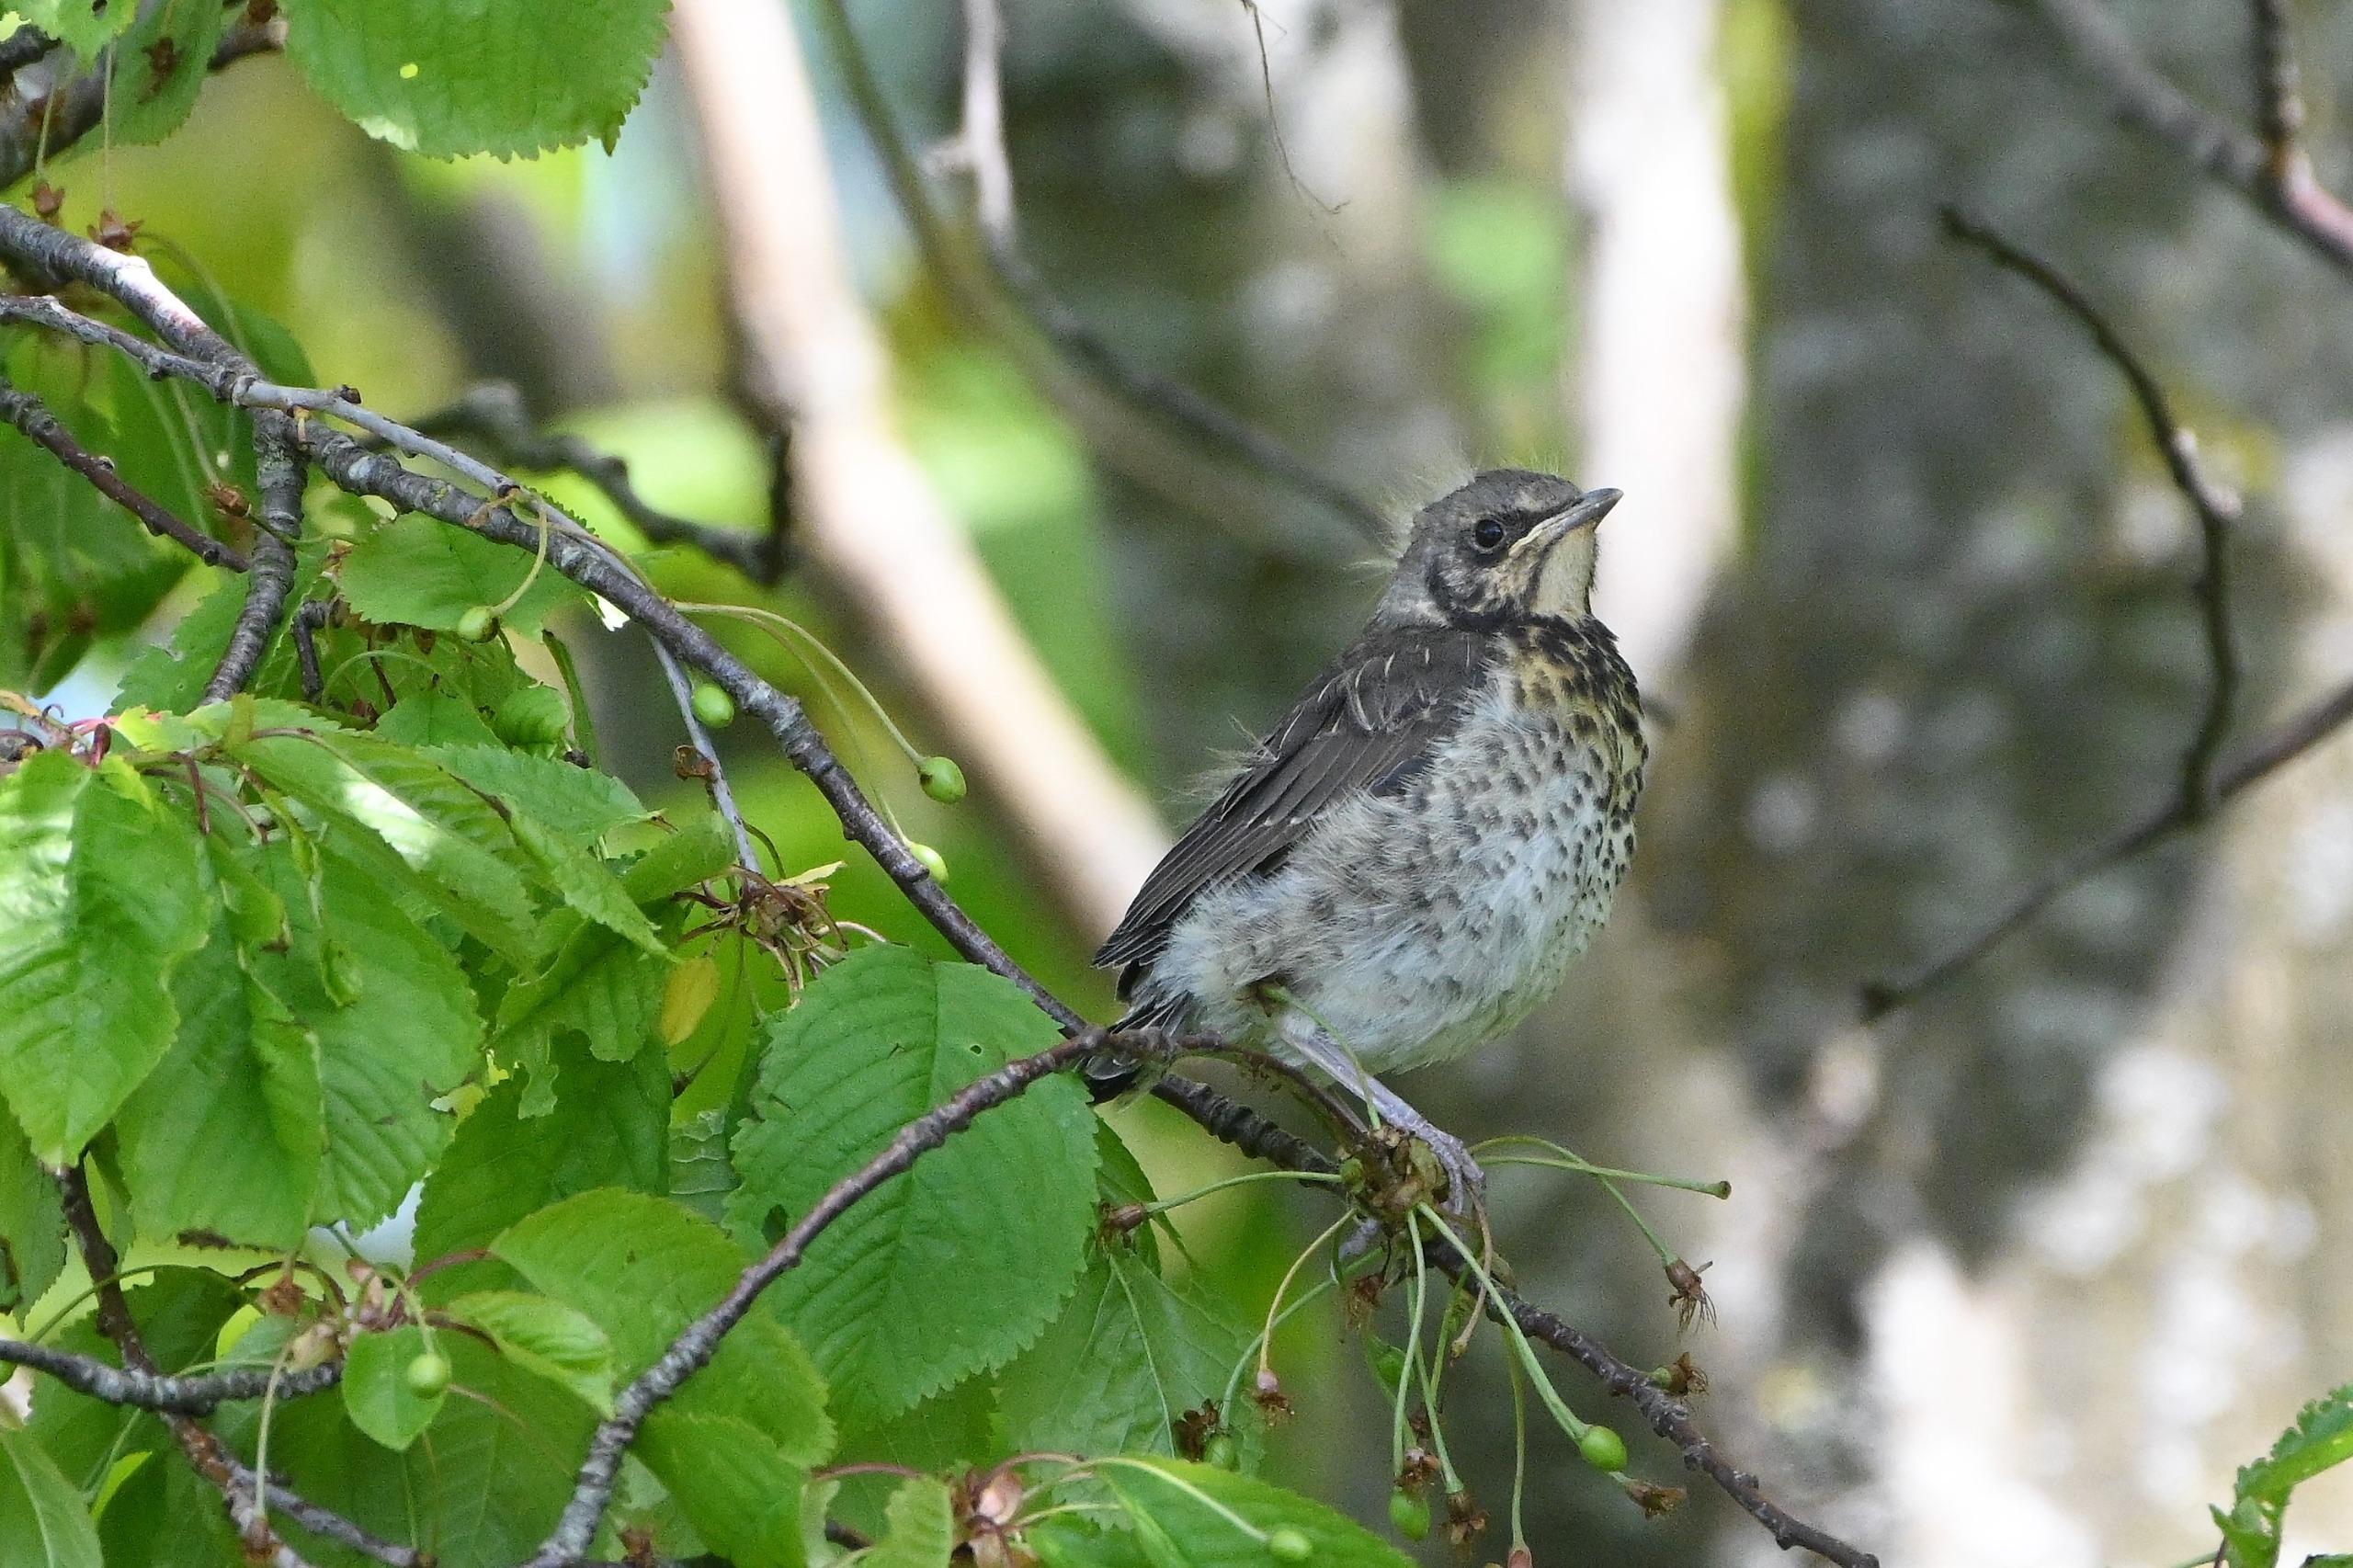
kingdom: Animalia
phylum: Chordata
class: Aves
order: Passeriformes
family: Turdidae
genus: Turdus
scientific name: Turdus pilaris
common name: Sjagger
